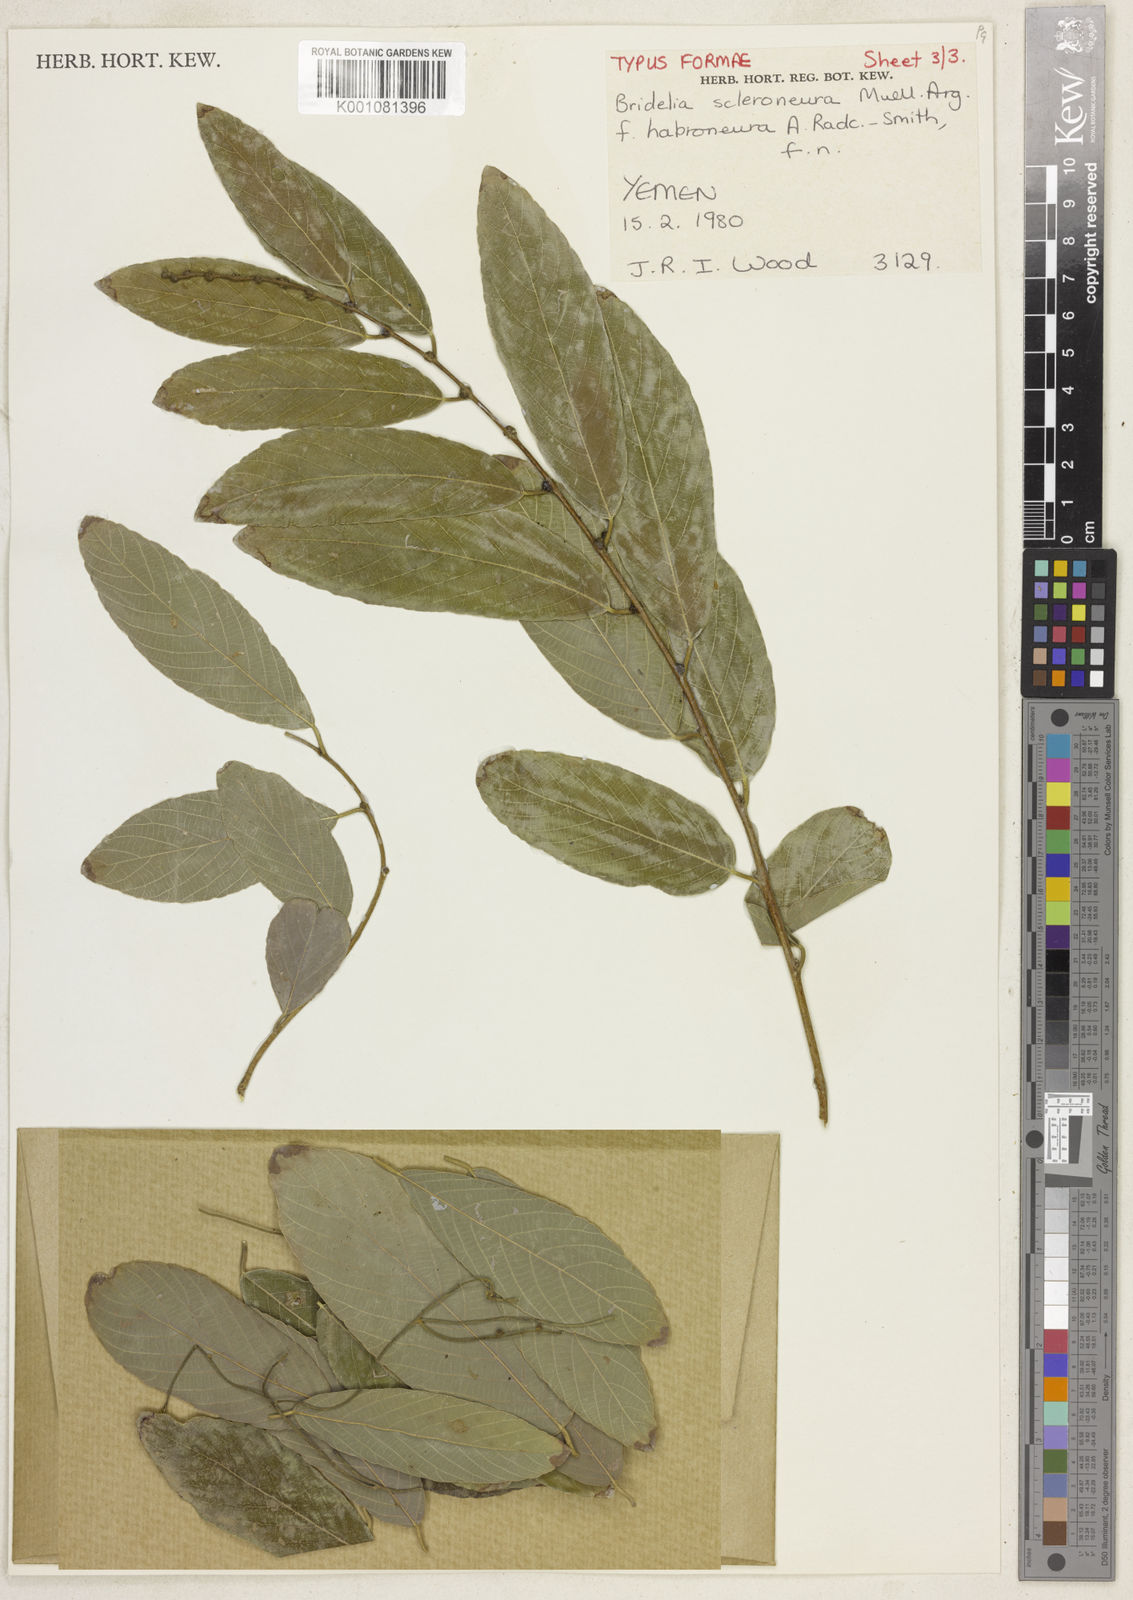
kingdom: Plantae
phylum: Tracheophyta
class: Magnoliopsida
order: Malpighiales
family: Phyllanthaceae
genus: Bridelia
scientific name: Bridelia
